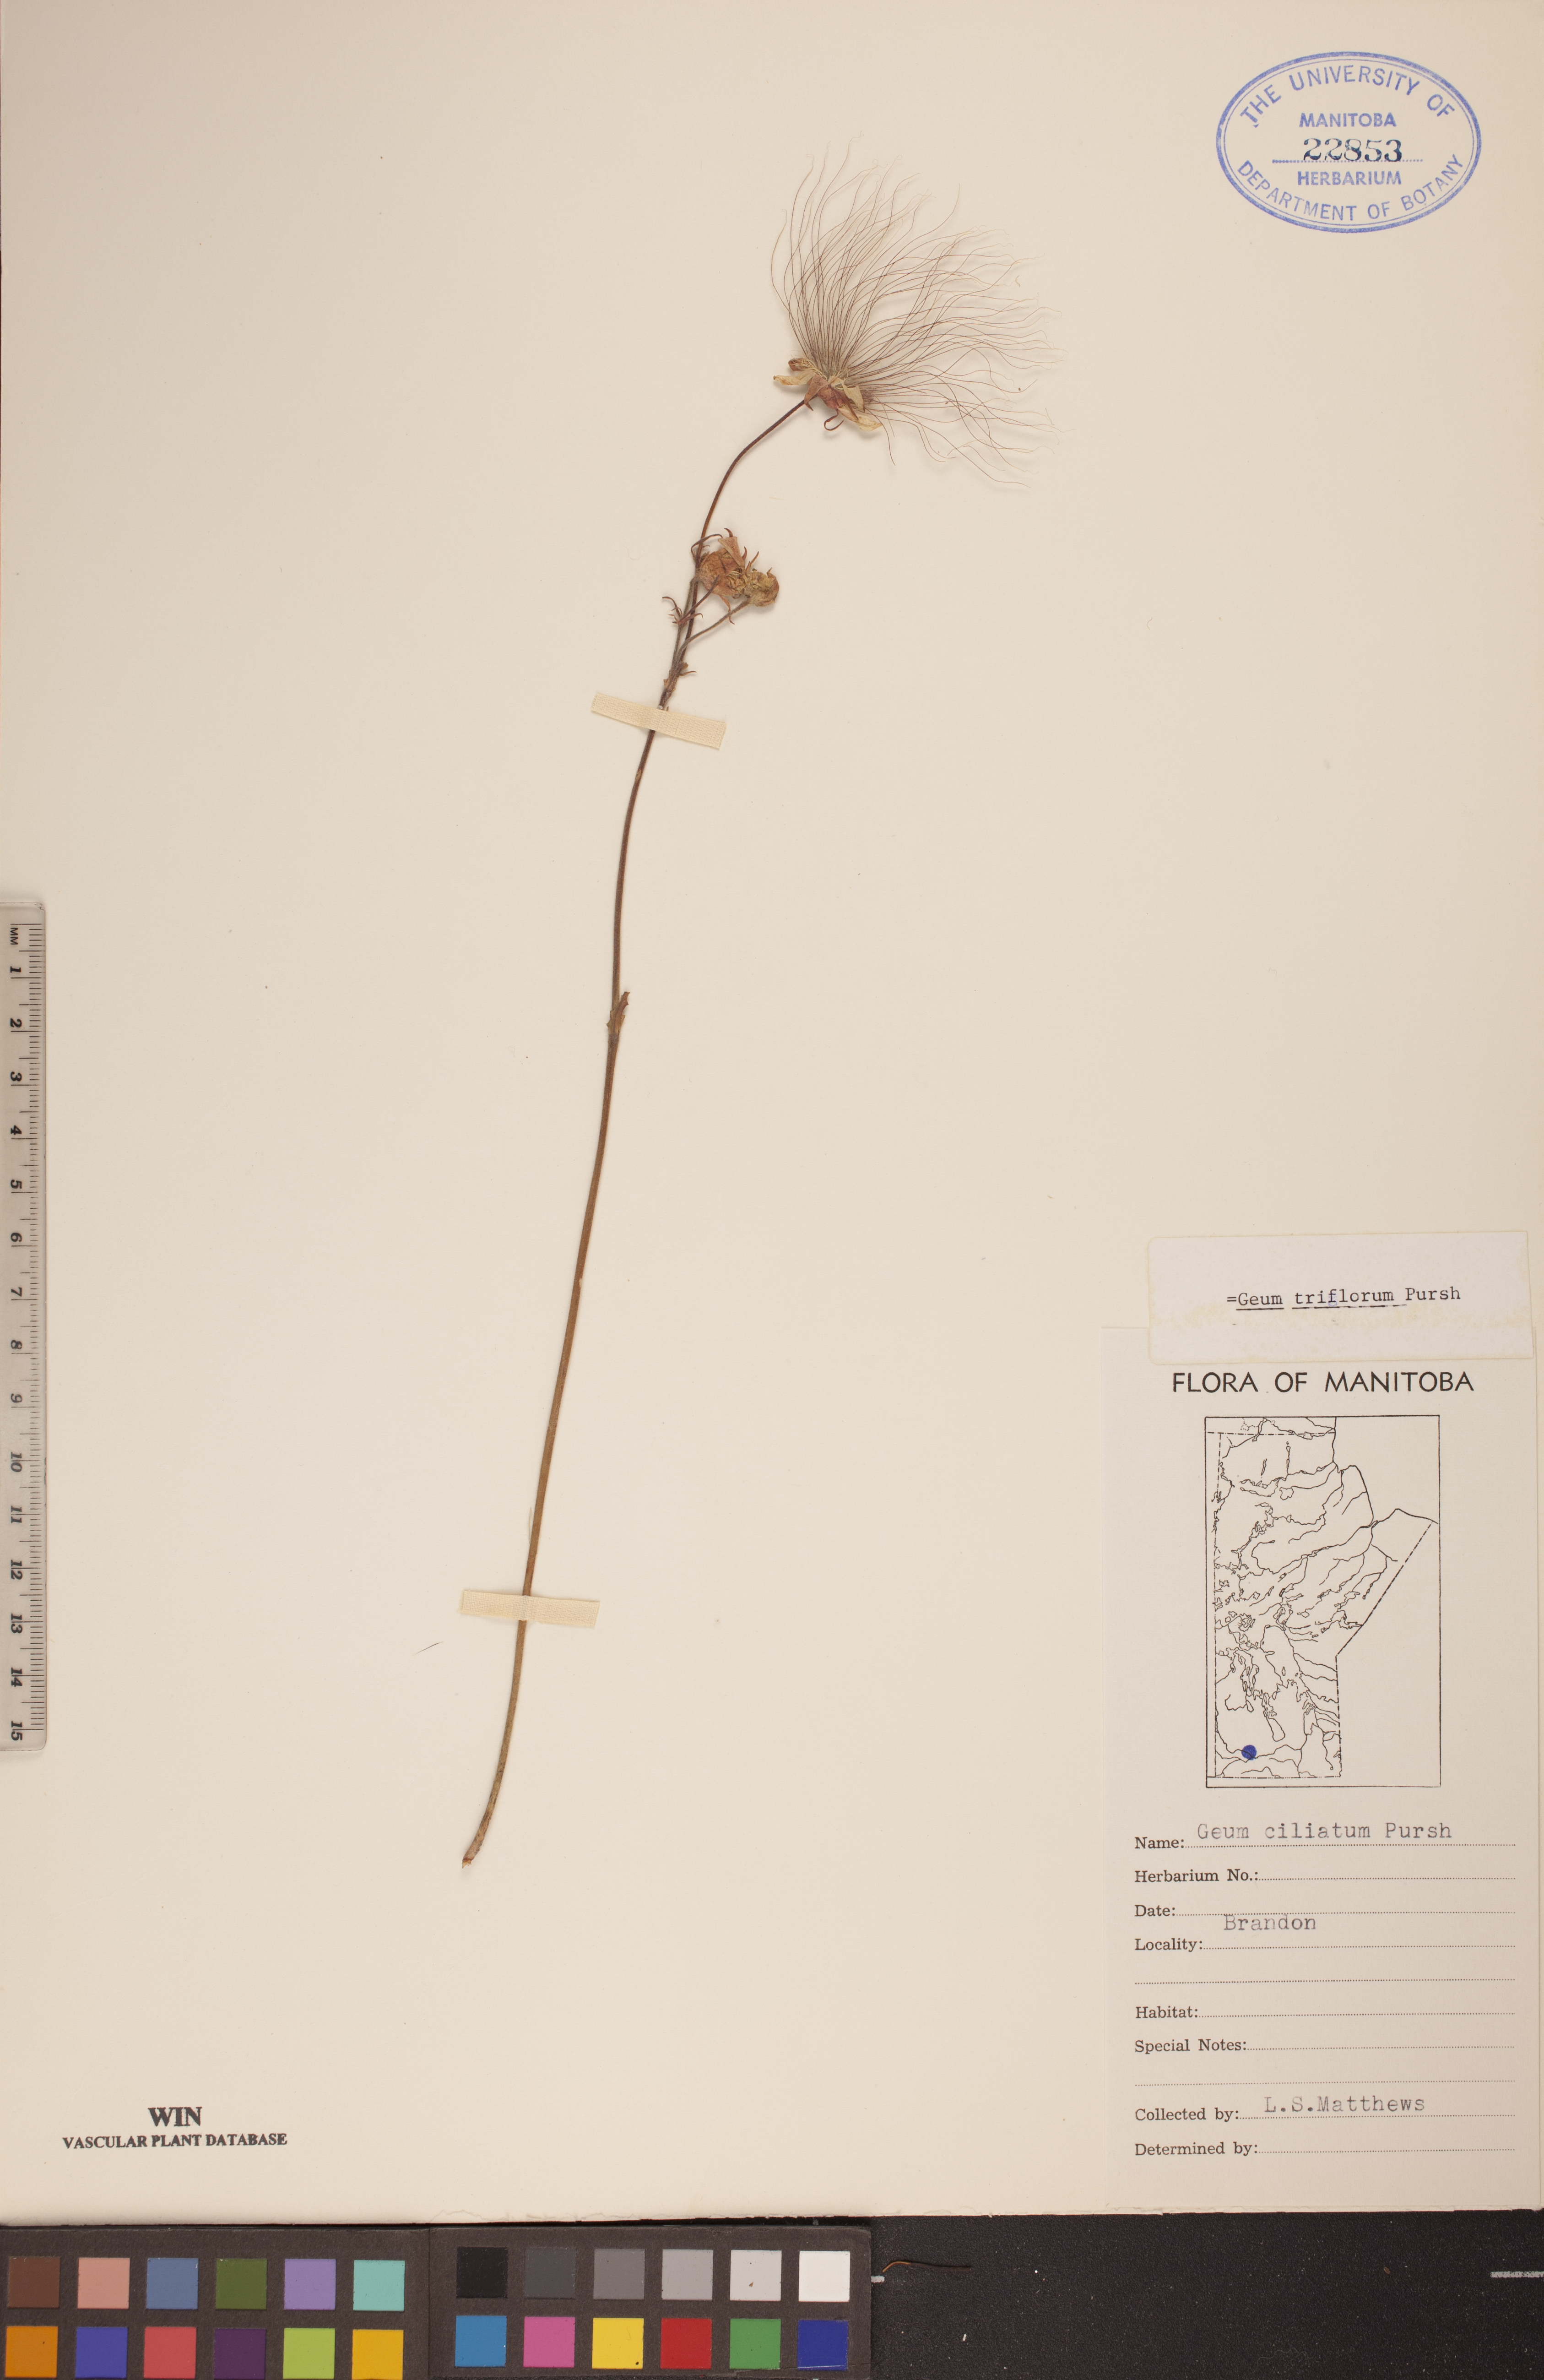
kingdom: Plantae
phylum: Tracheophyta
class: Magnoliopsida
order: Rosales
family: Rosaceae
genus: Geum
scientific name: Geum triflorum
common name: Old man's whiskers
